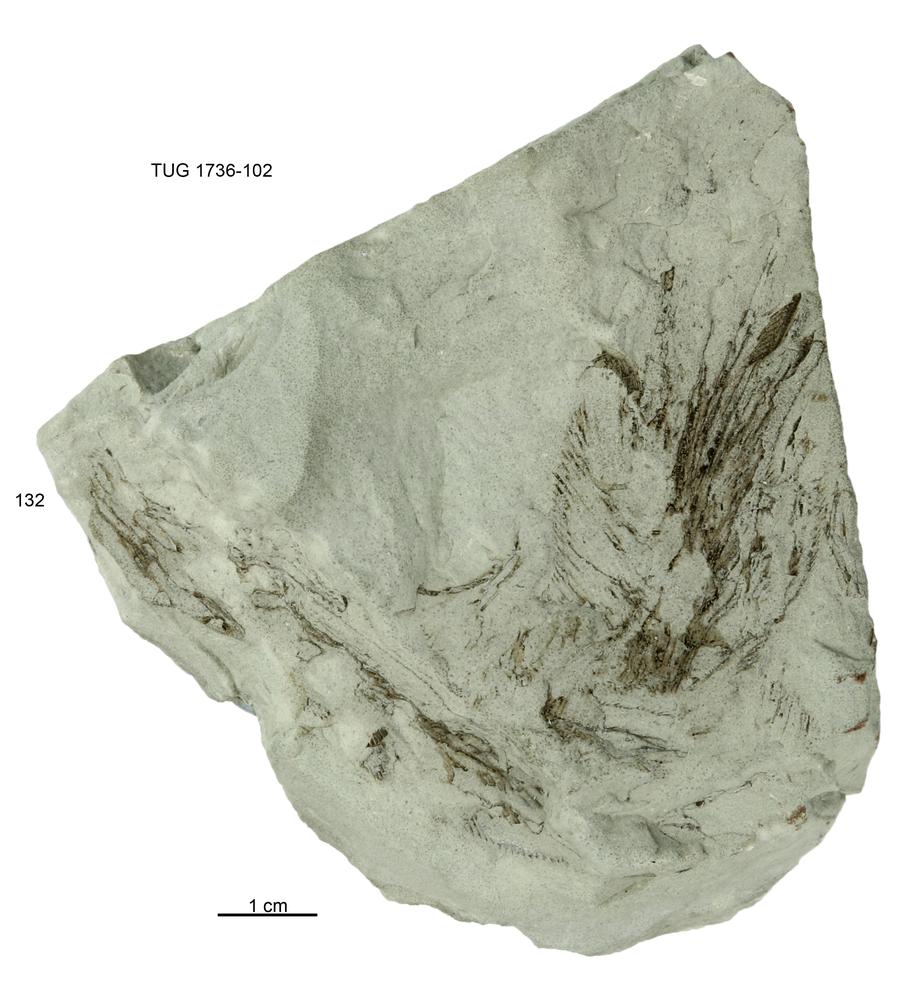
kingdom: Animalia
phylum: Echinodermata
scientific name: Echinodermata
